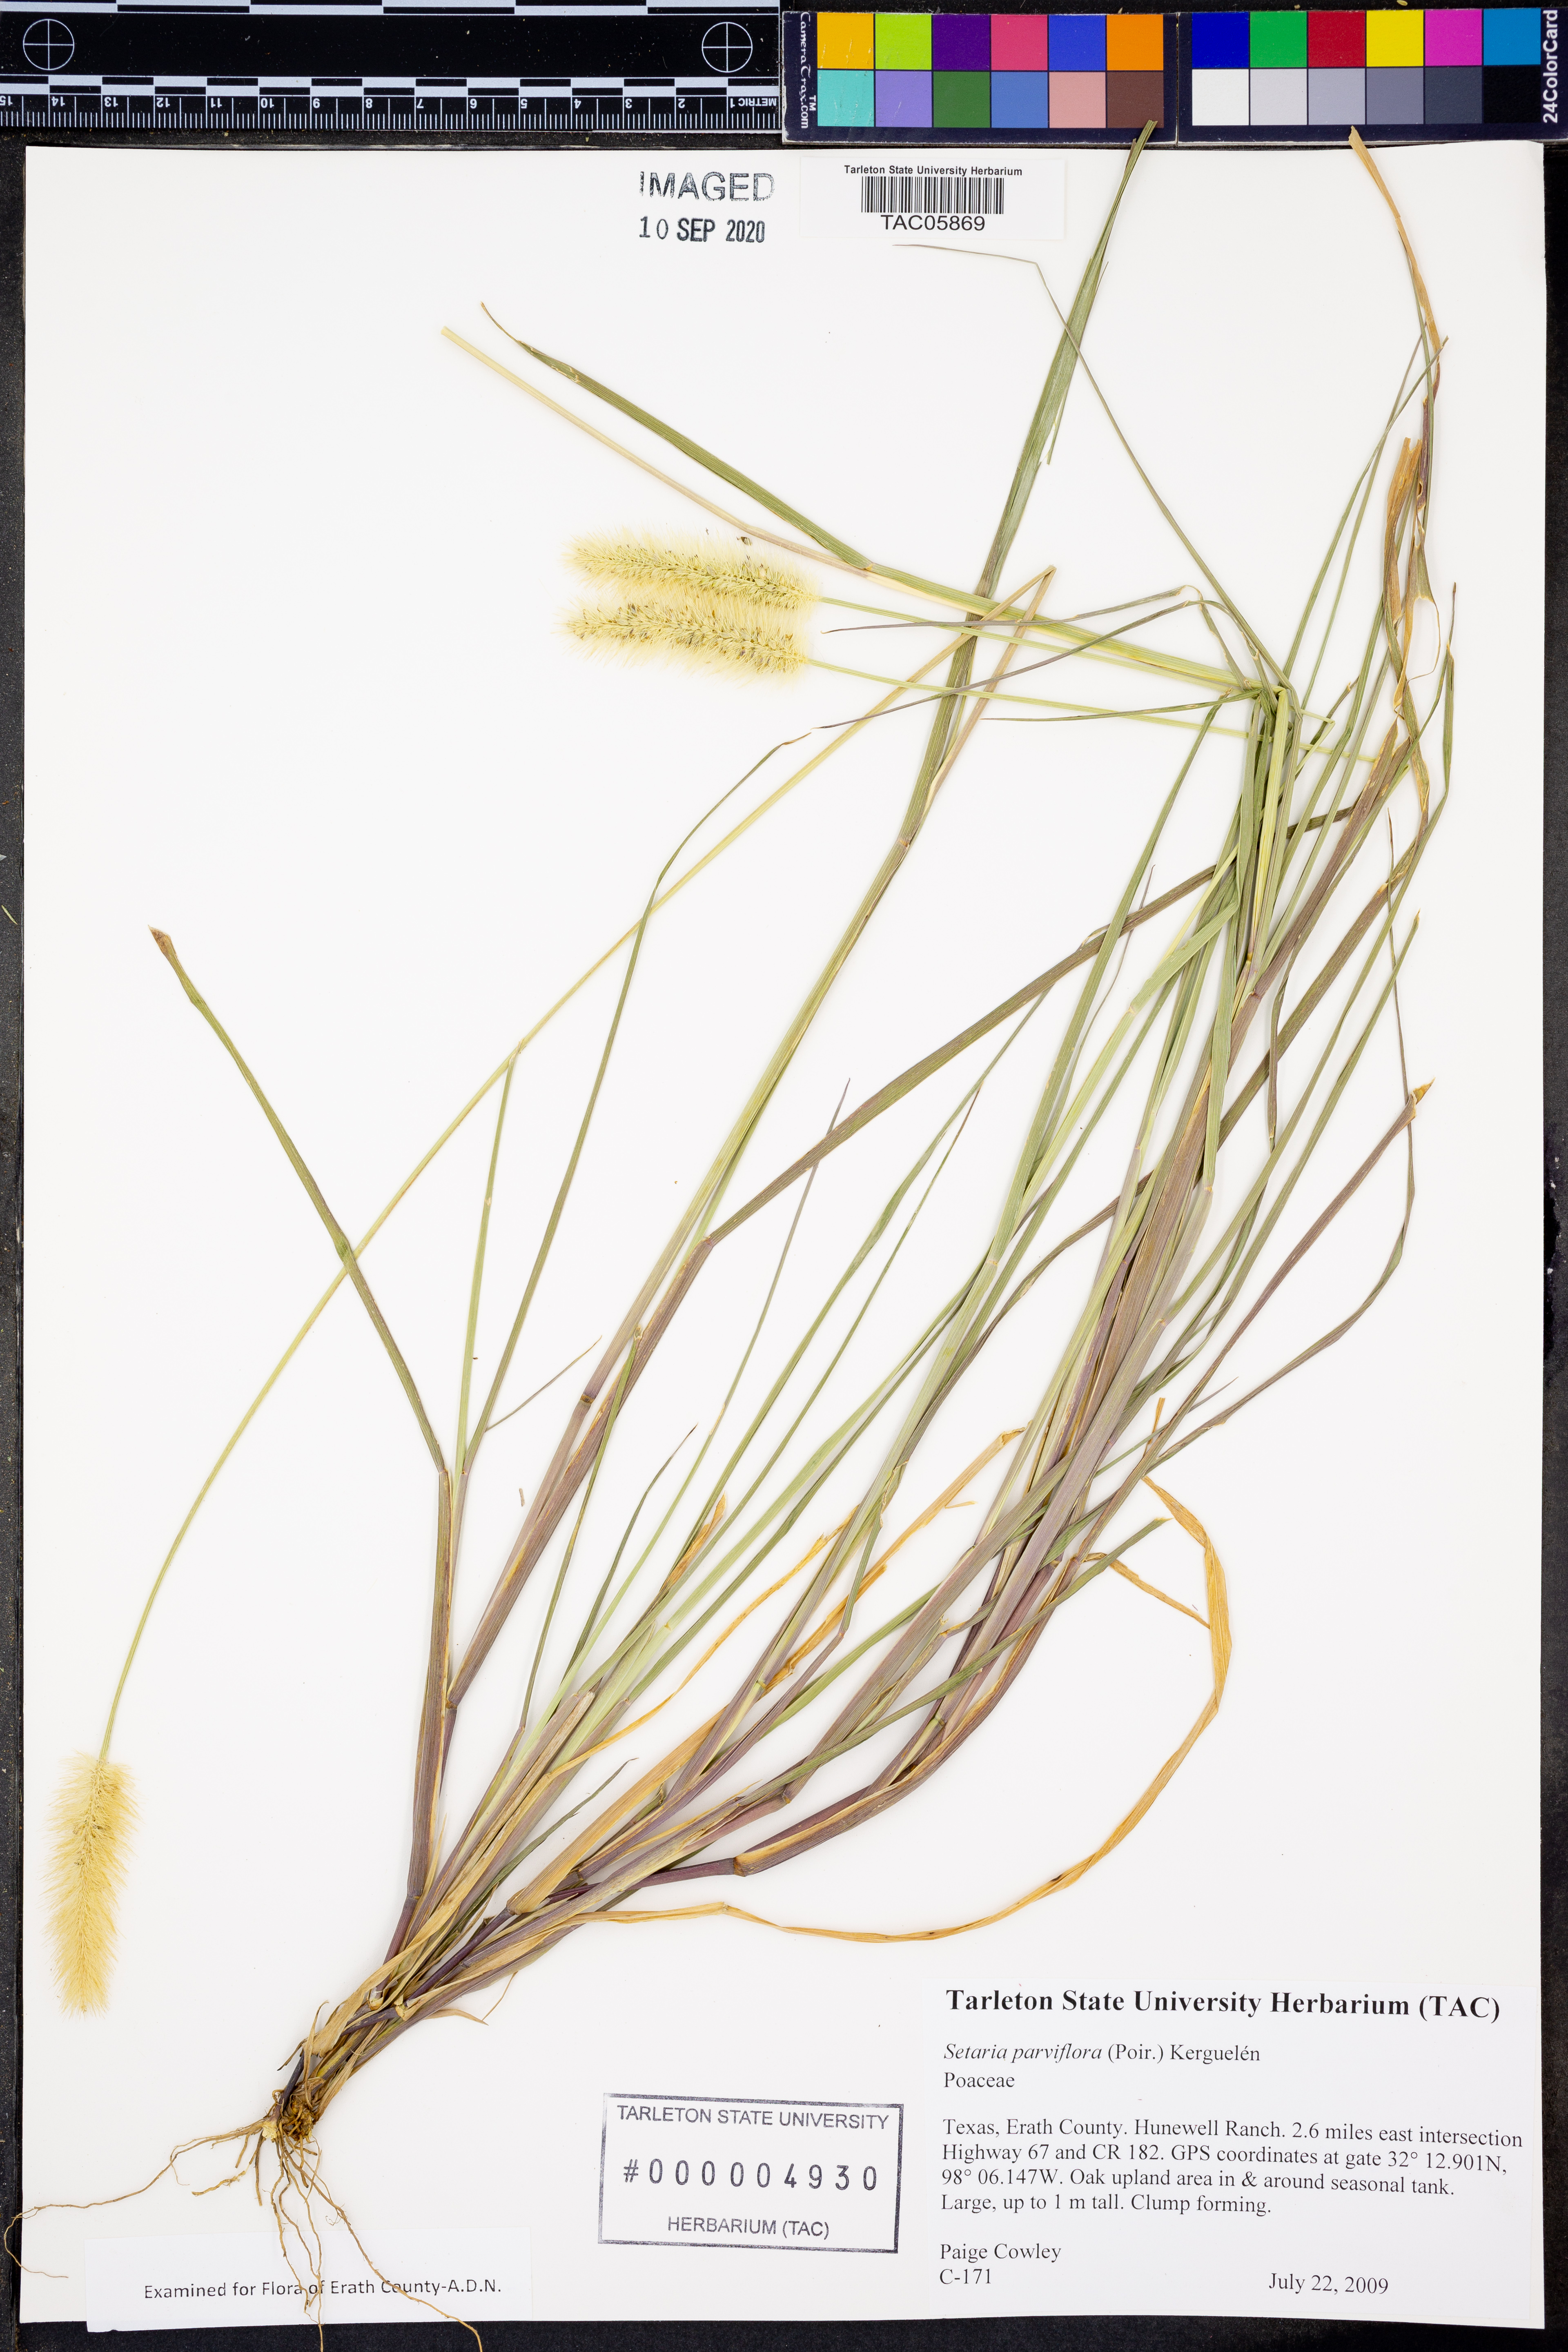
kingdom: Plantae
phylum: Tracheophyta
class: Liliopsida
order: Poales
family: Poaceae
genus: Setaria
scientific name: Setaria parviflora
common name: Knotroot bristle-grass
